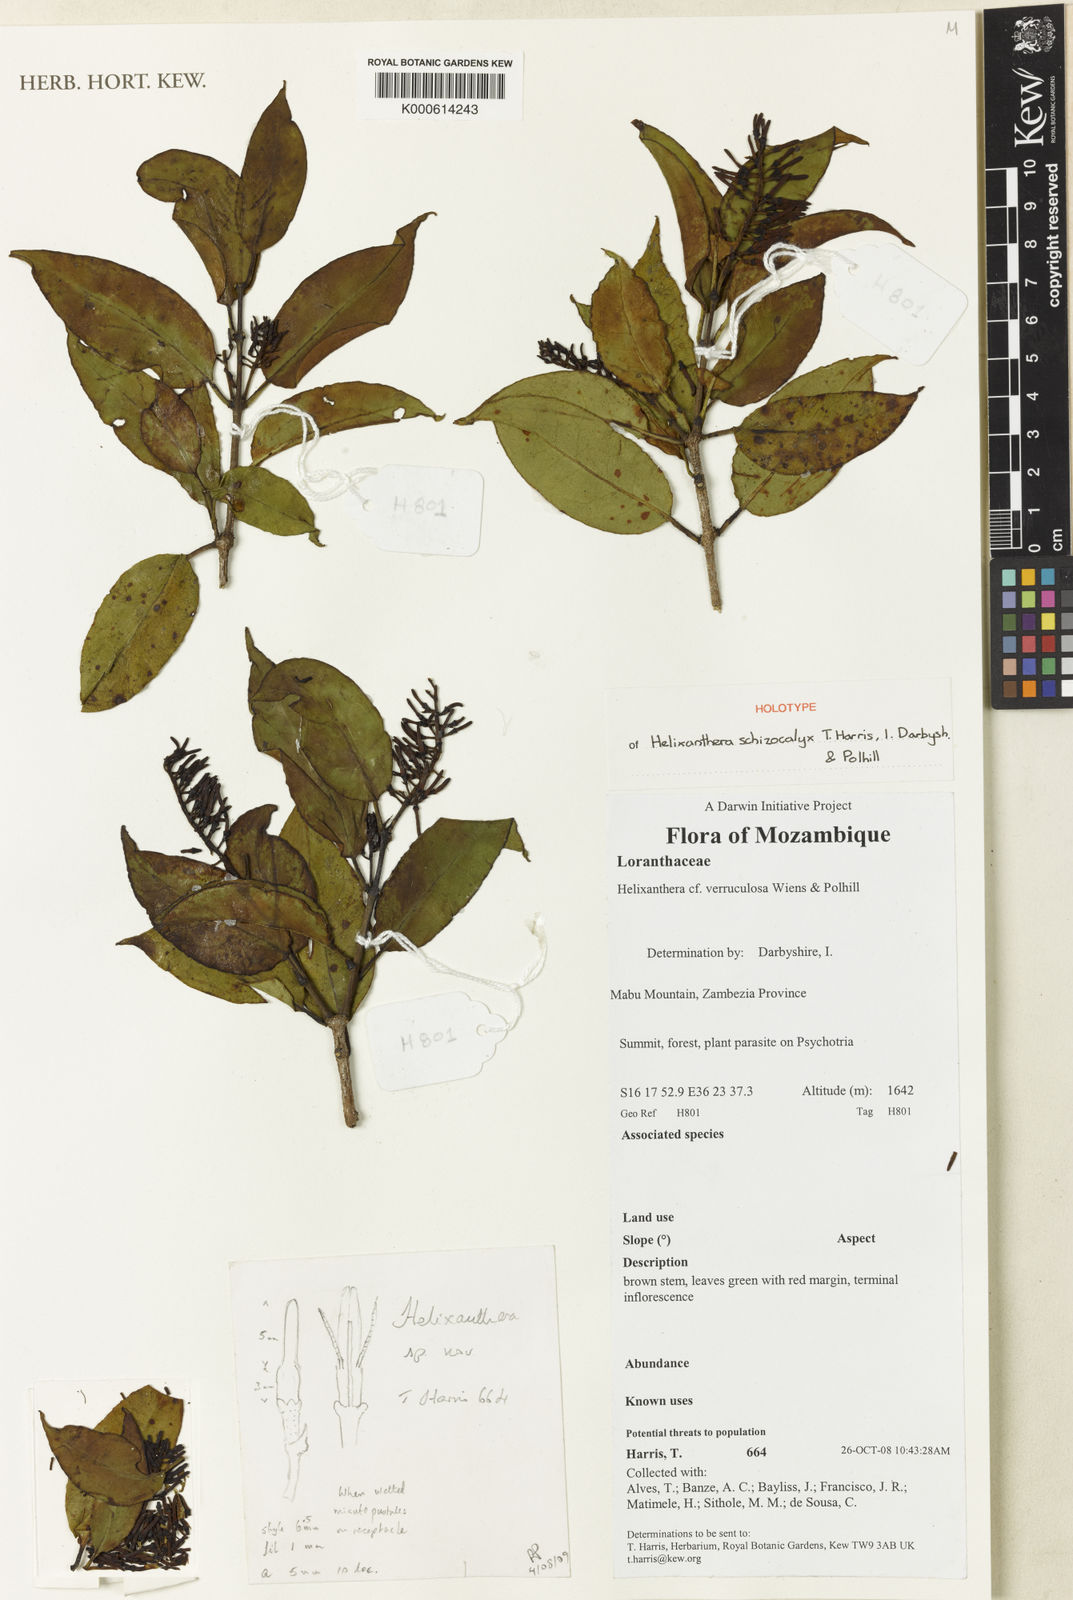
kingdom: Plantae
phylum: Tracheophyta
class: Magnoliopsida
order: Santalales
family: Loranthaceae
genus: Helixanthera
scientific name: Helixanthera verruculosa
